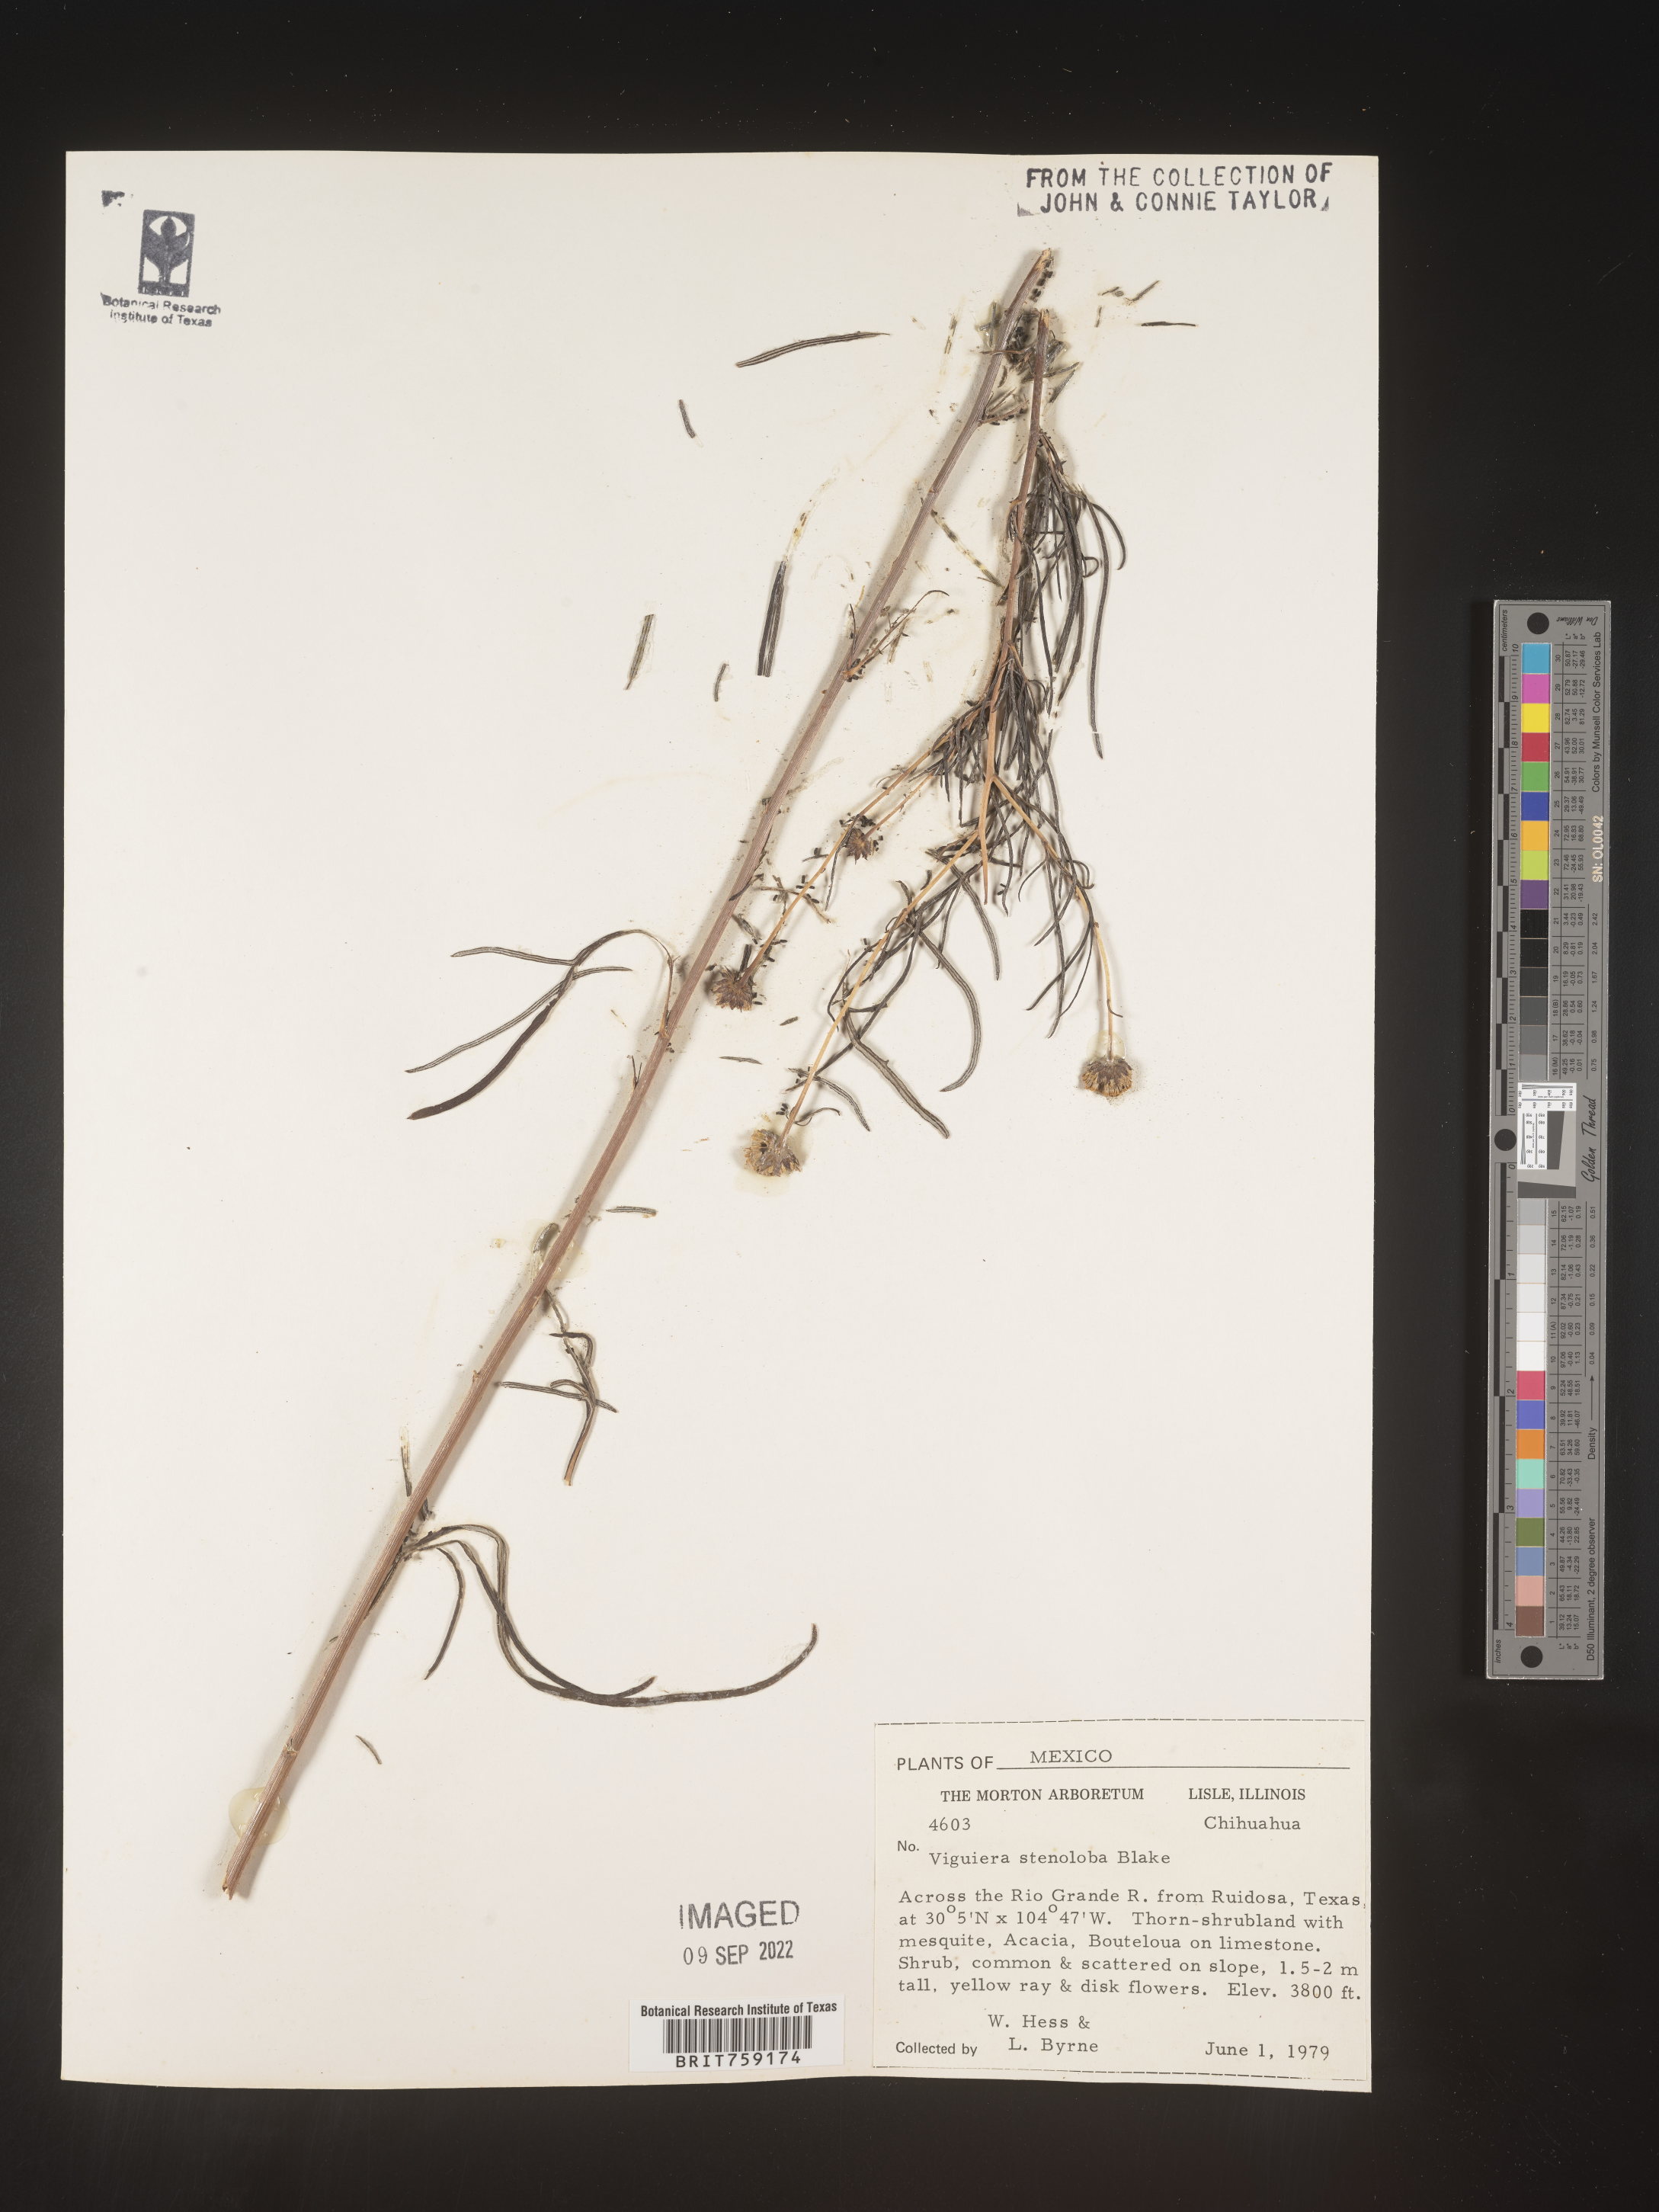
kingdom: Plantae
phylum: Tracheophyta
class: Magnoliopsida
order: Asterales
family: Asteraceae
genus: Viguiera
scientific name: Viguiera
